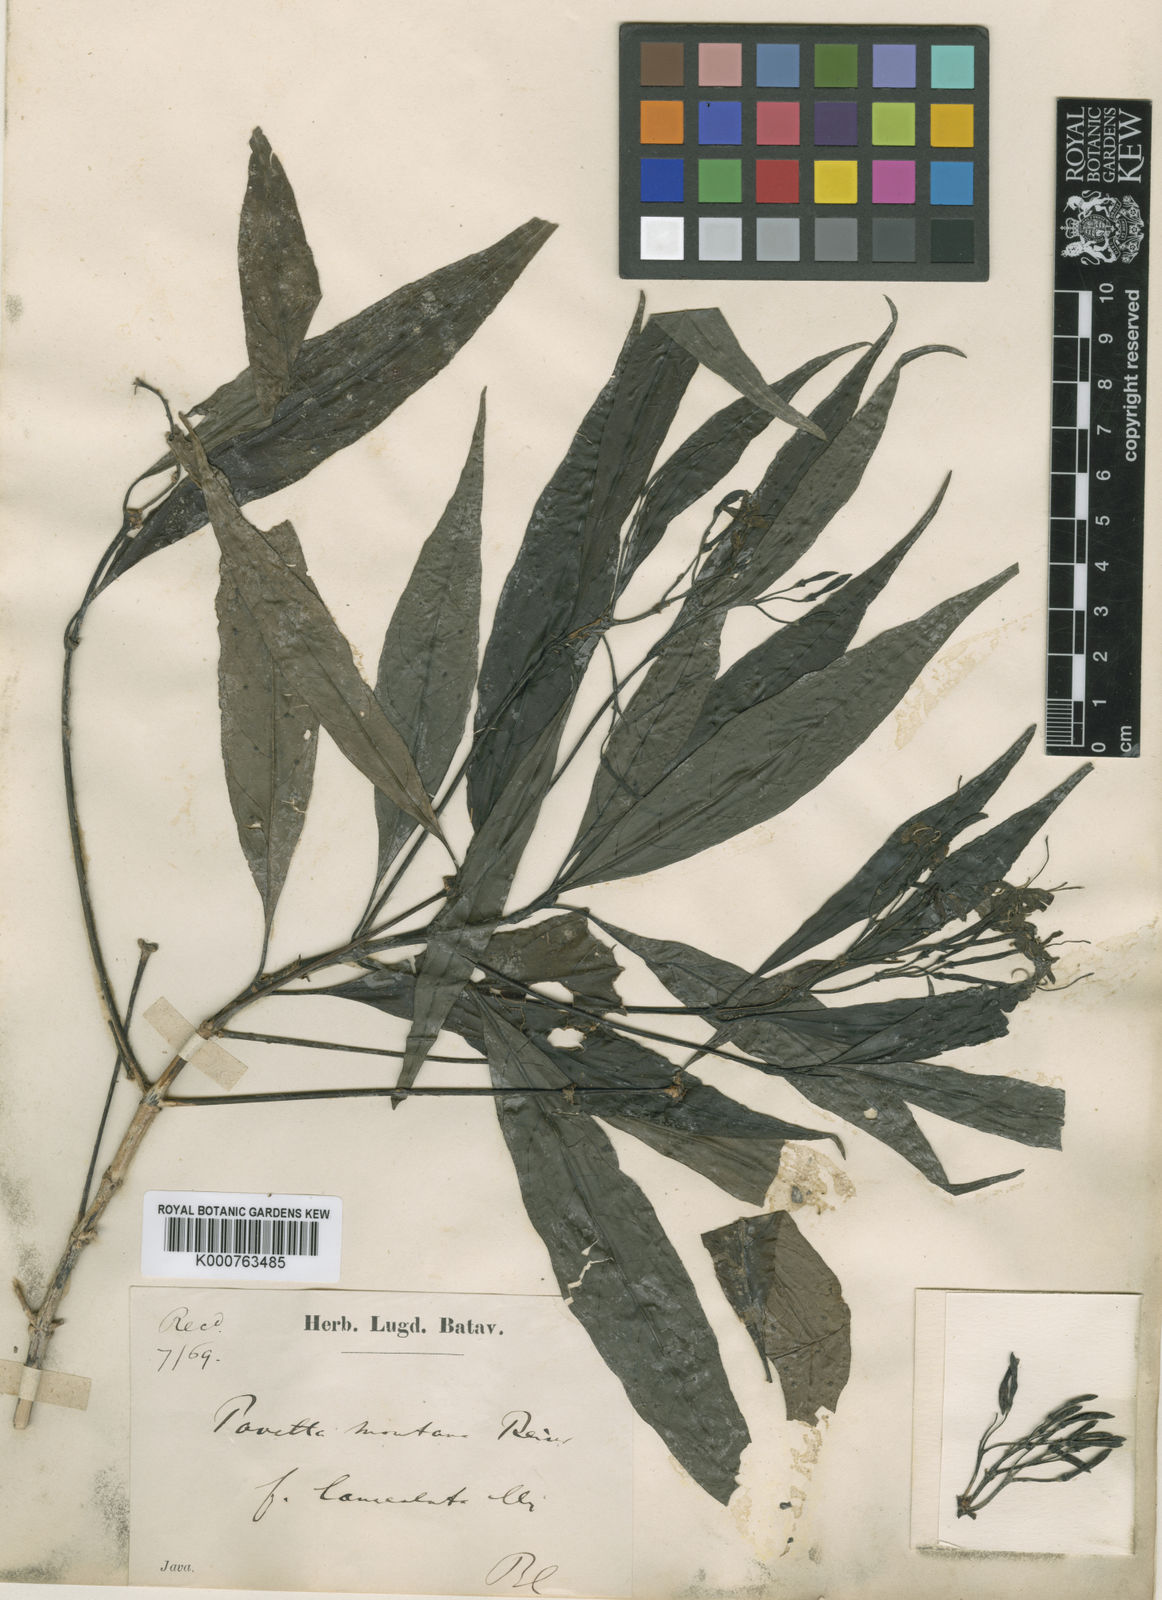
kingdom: Plantae
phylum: Tracheophyta
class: Magnoliopsida
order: Gentianales
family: Rubiaceae
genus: Pavetta
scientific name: Pavetta montana
